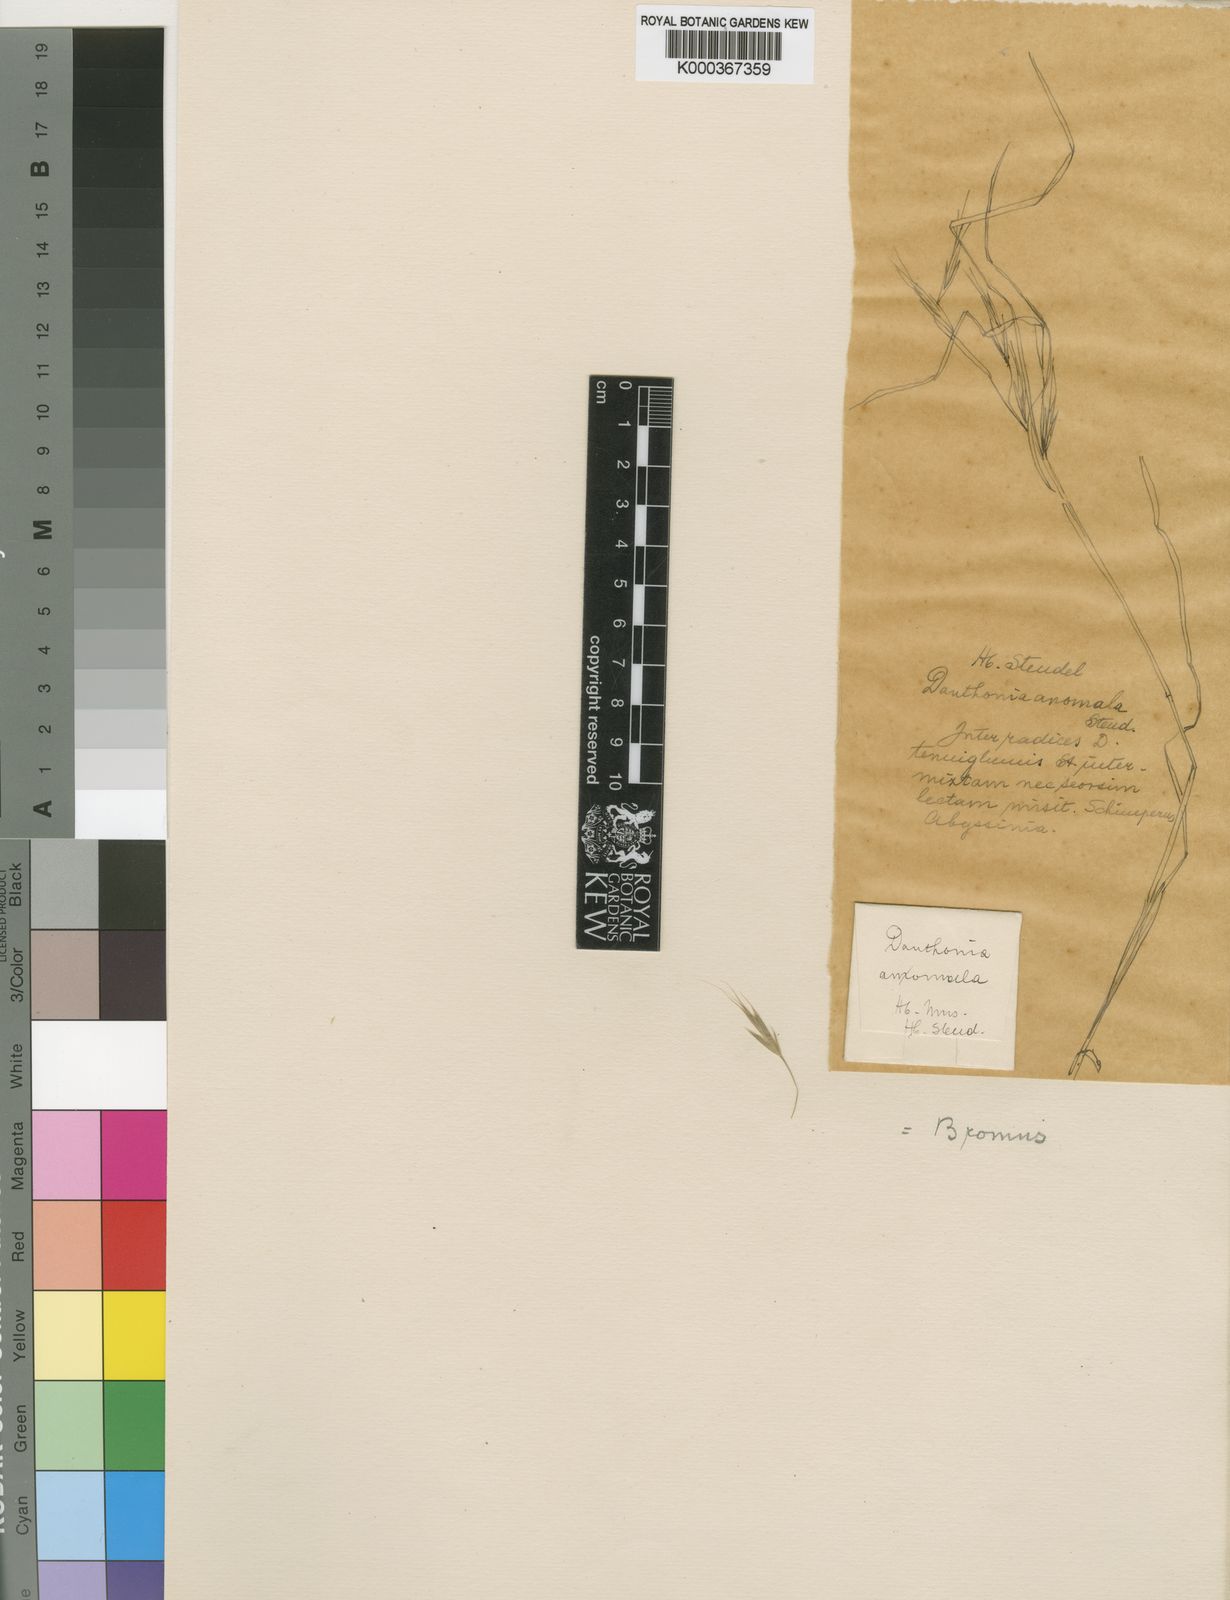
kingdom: Plantae
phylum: Tracheophyta
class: Liliopsida
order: Poales
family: Poaceae
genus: Bromus
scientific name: Bromus pectinatus
